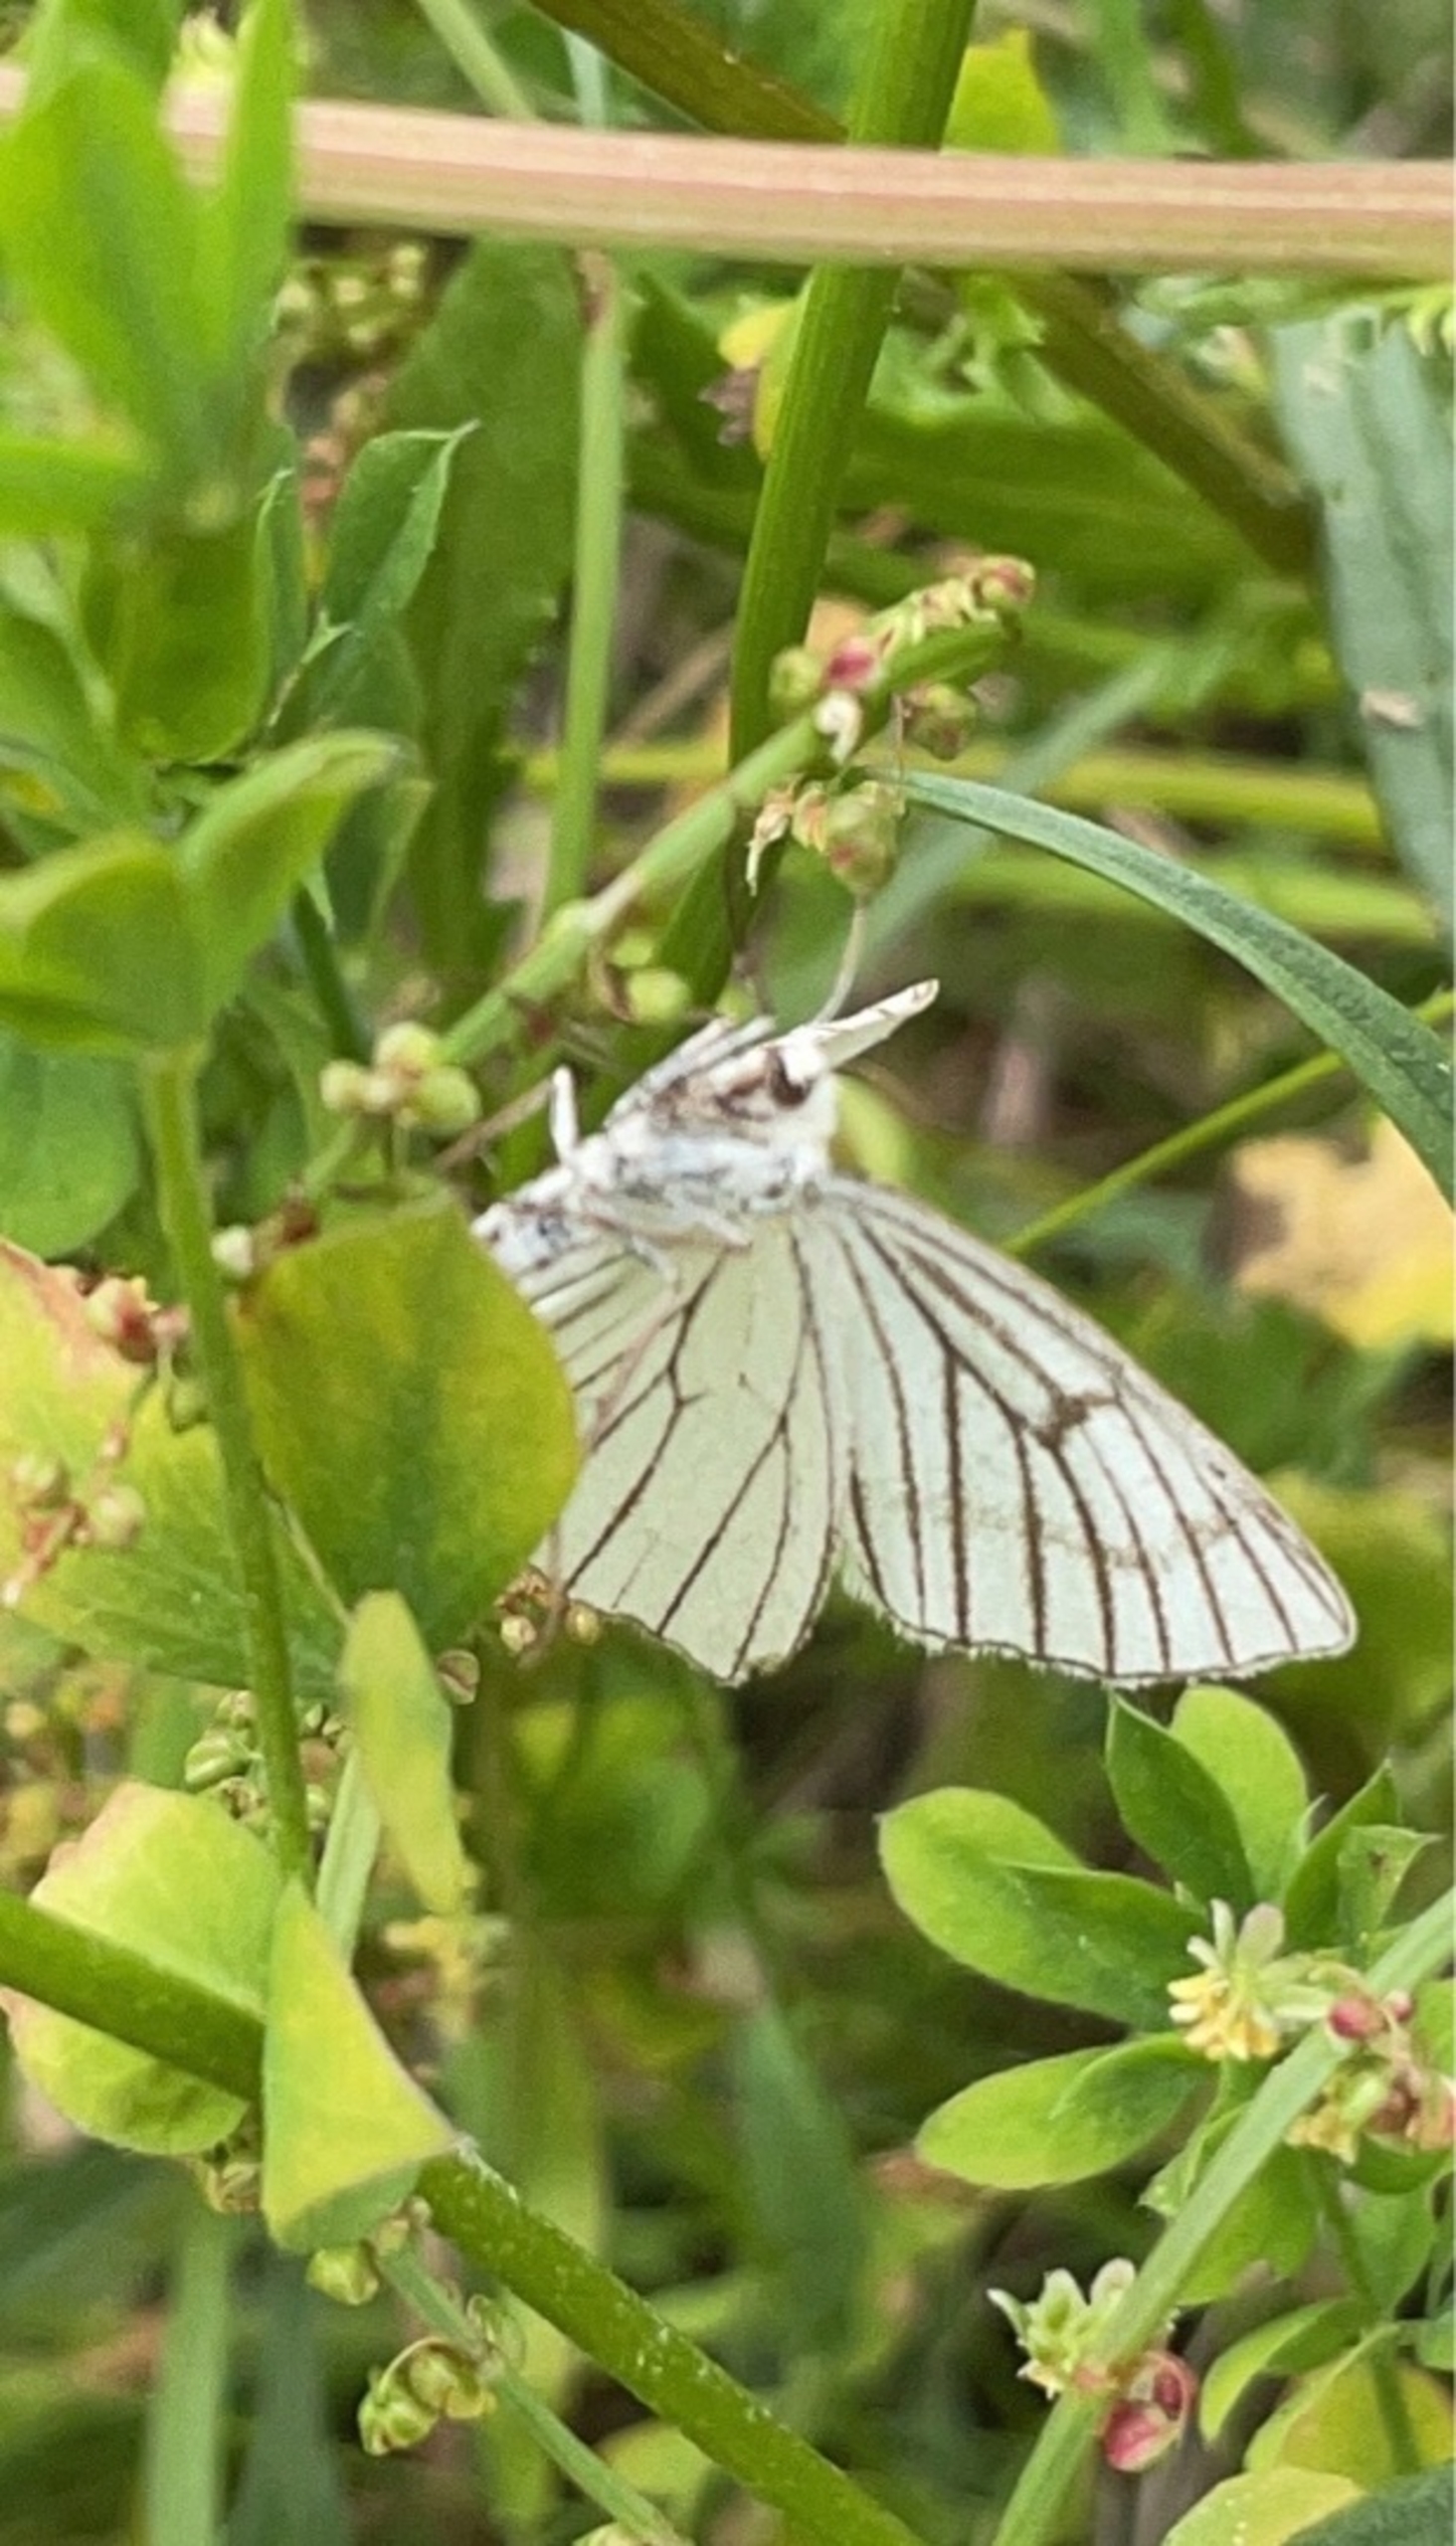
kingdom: Animalia
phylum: Arthropoda
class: Insecta
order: Lepidoptera
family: Geometridae
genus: Siona
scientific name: Siona lineata
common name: Hvidvingemåler
